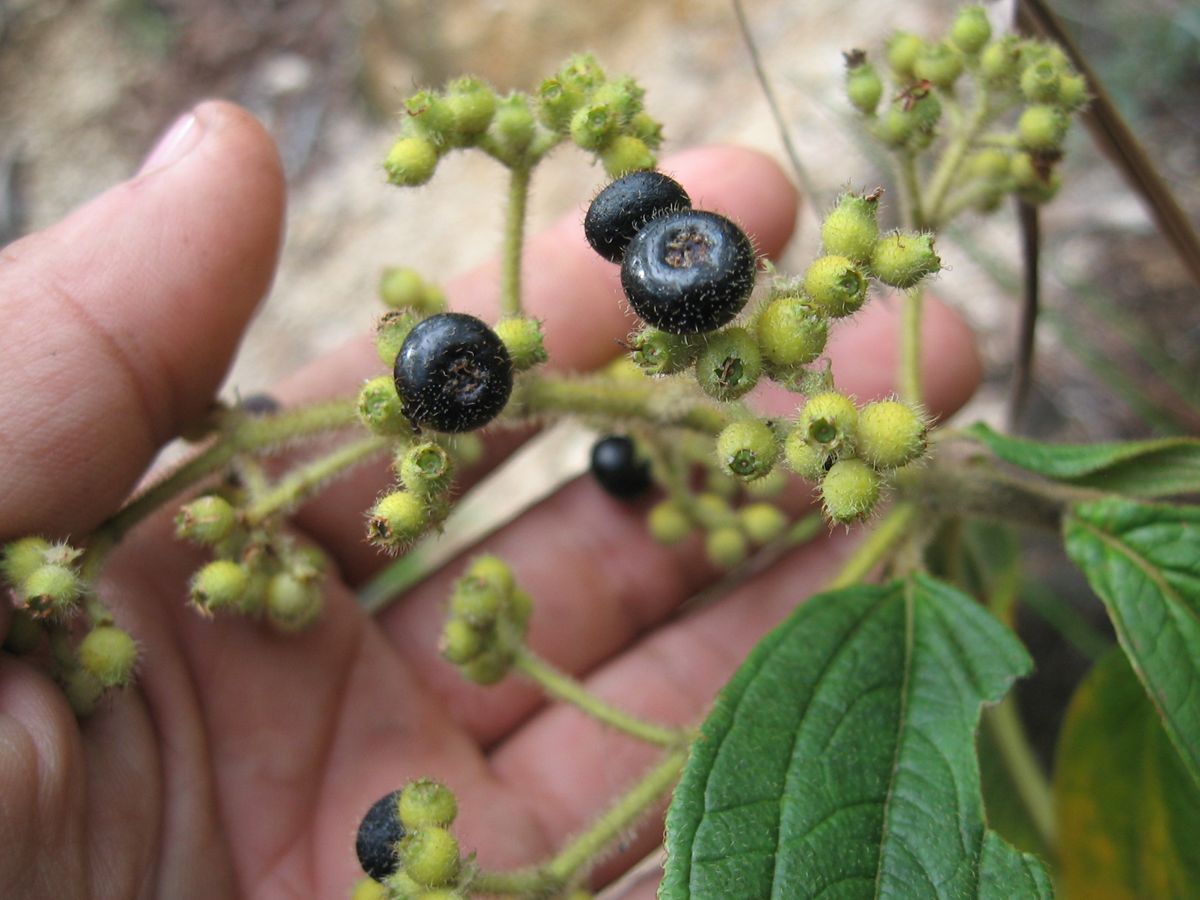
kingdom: Plantae
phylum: Tracheophyta
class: Magnoliopsida
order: Myrtales
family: Melastomataceae
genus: Miconia
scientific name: Miconia dependens
